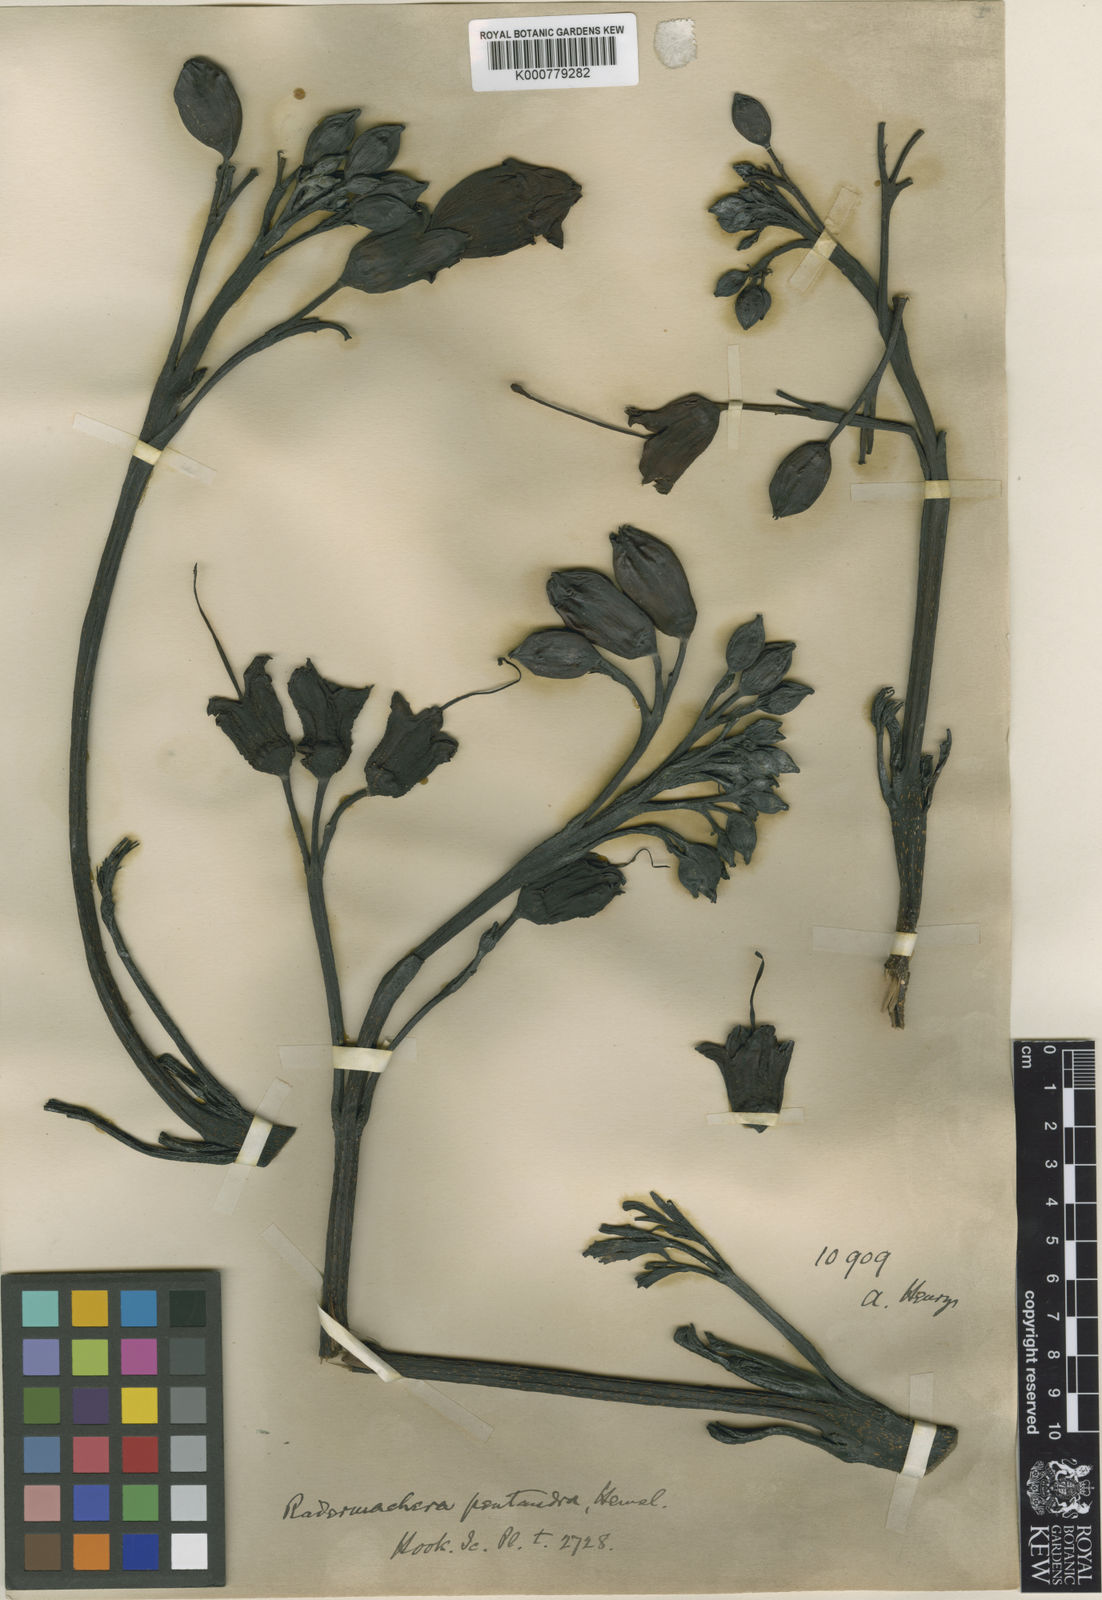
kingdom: Plantae
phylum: Tracheophyta
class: Magnoliopsida
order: Lamiales
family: Bignoniaceae
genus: Radermachera
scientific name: Radermachera pentandra
